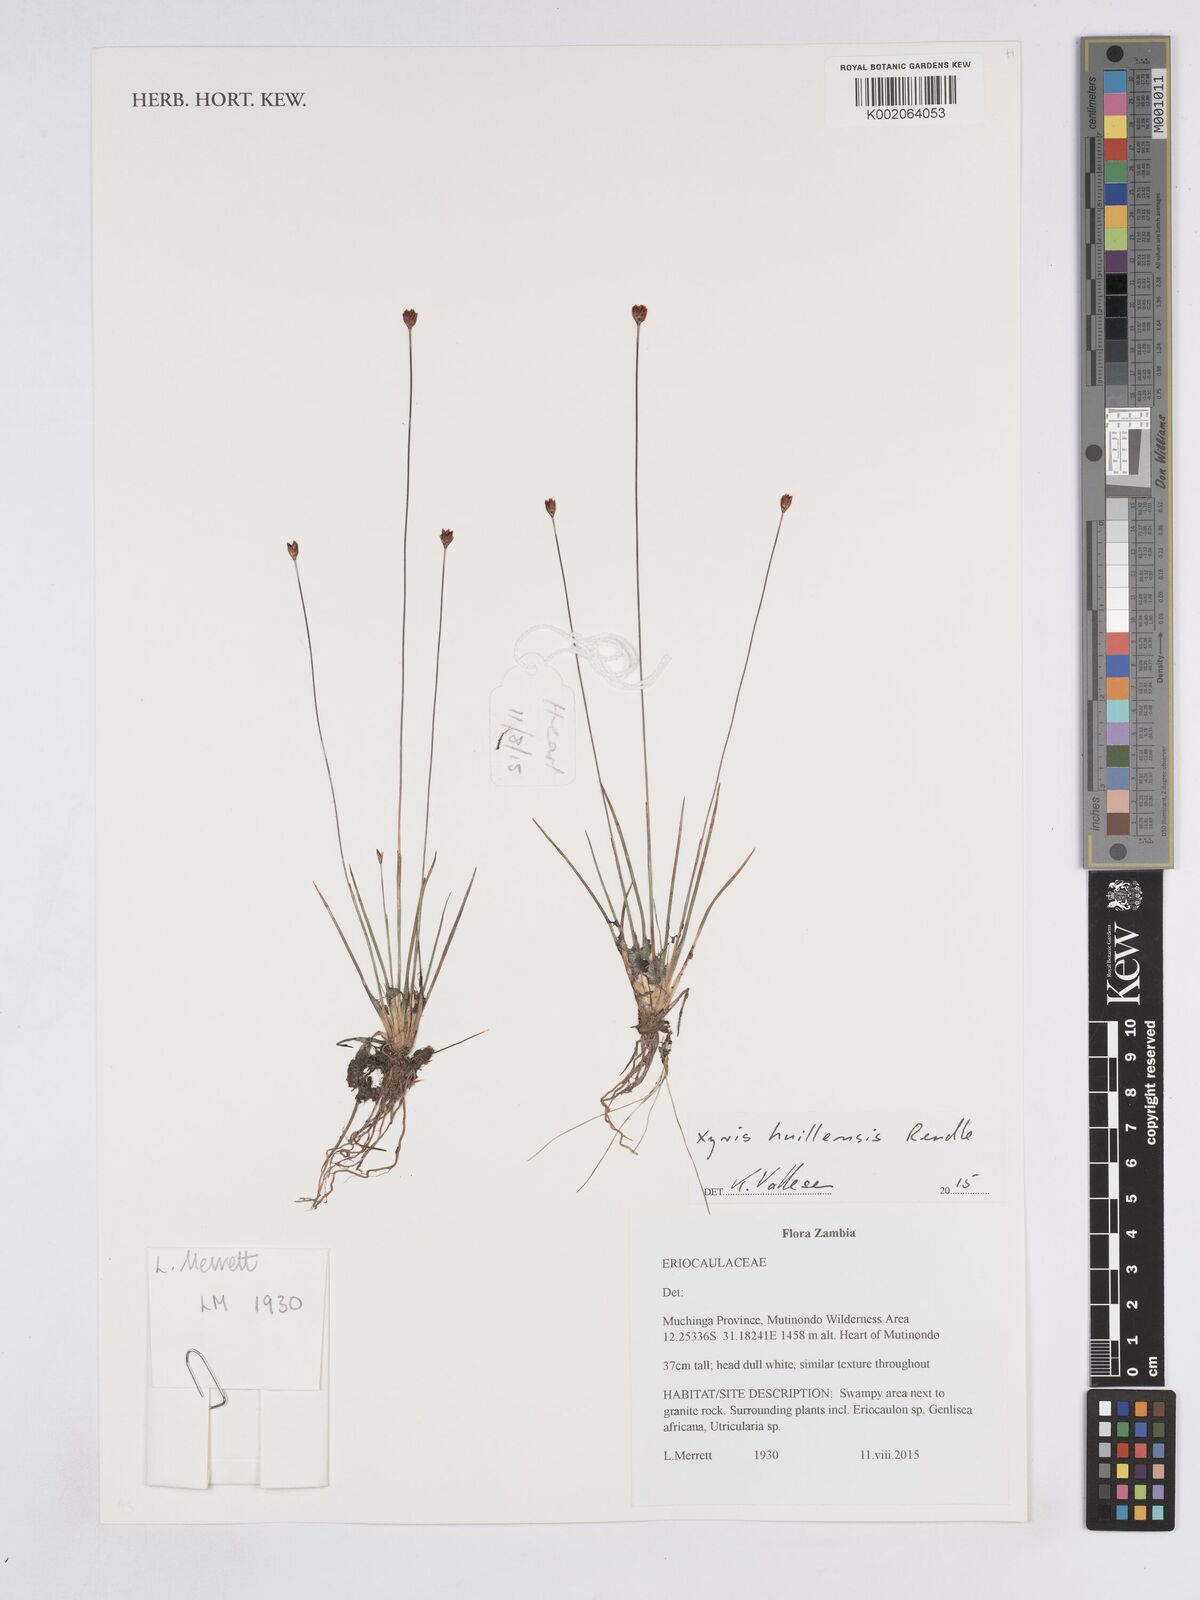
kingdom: Plantae
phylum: Tracheophyta
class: Liliopsida
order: Poales
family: Xyridaceae
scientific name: Xyridaceae
